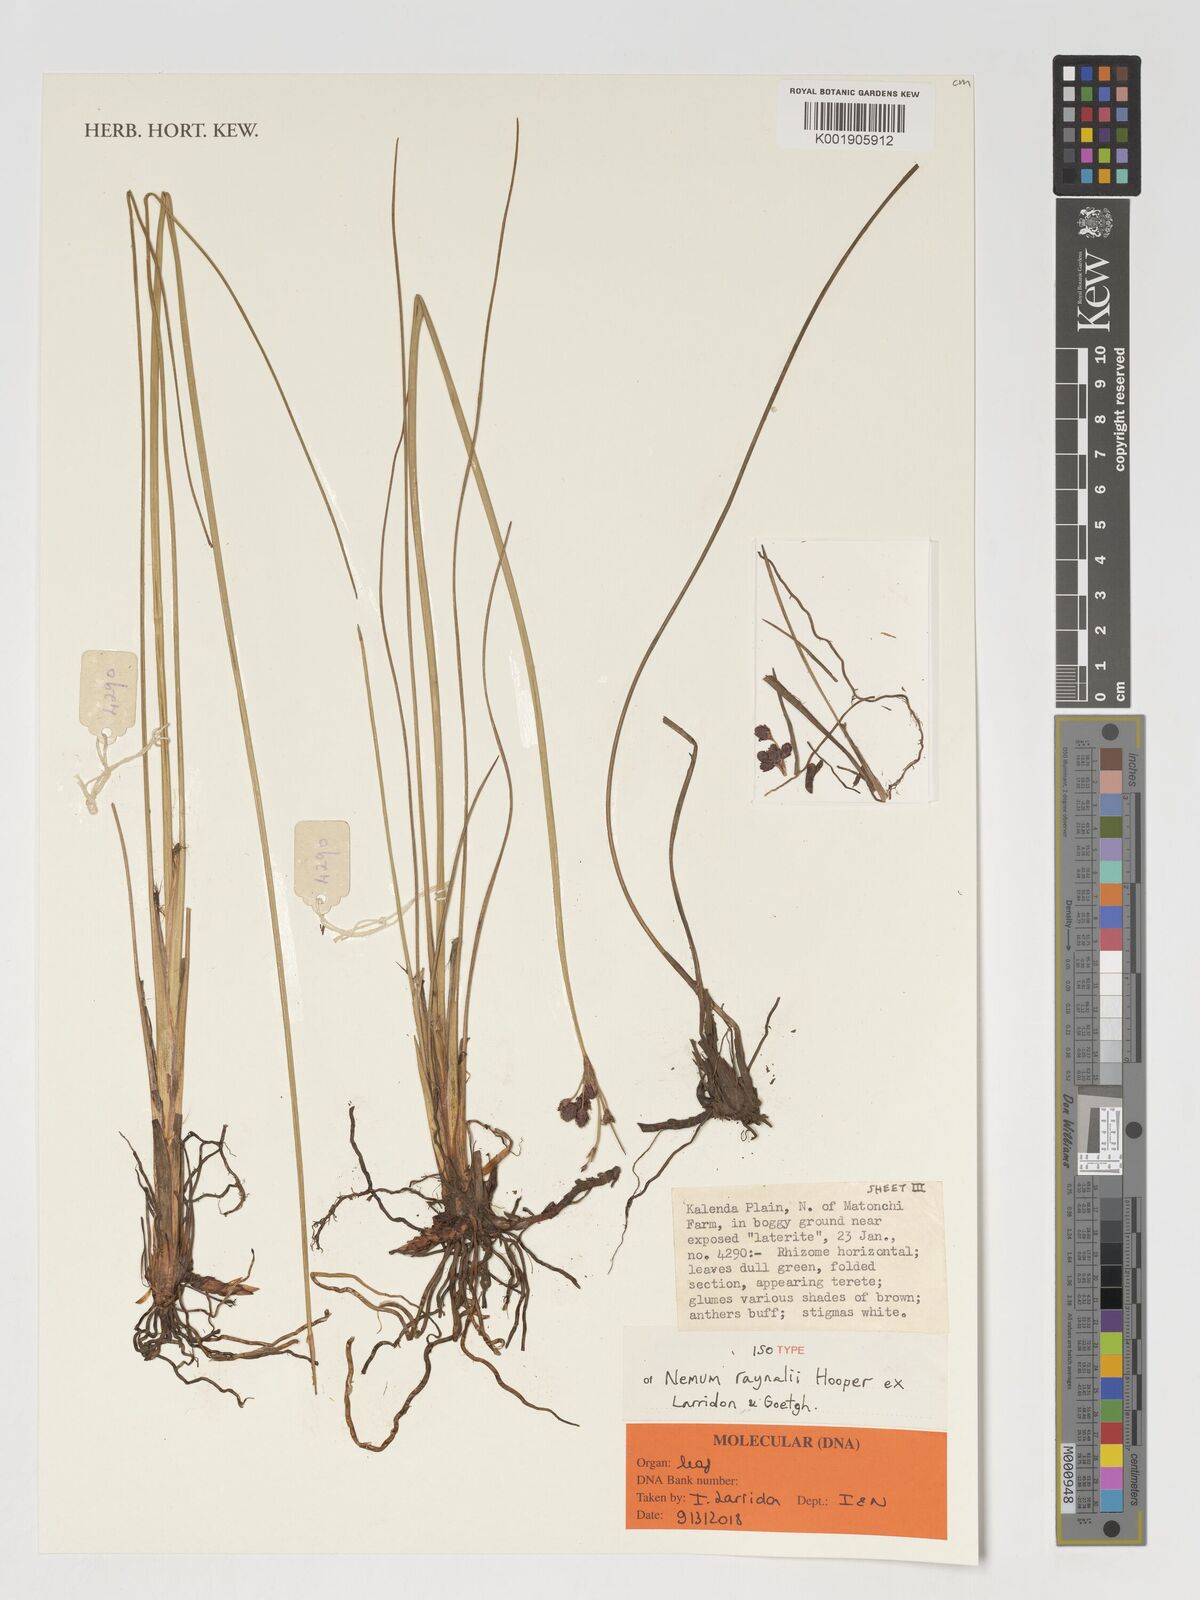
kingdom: Plantae
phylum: Tracheophyta
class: Liliopsida
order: Poales
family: Cyperaceae
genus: Bulbostylis
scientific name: Bulbostylis raynalii
